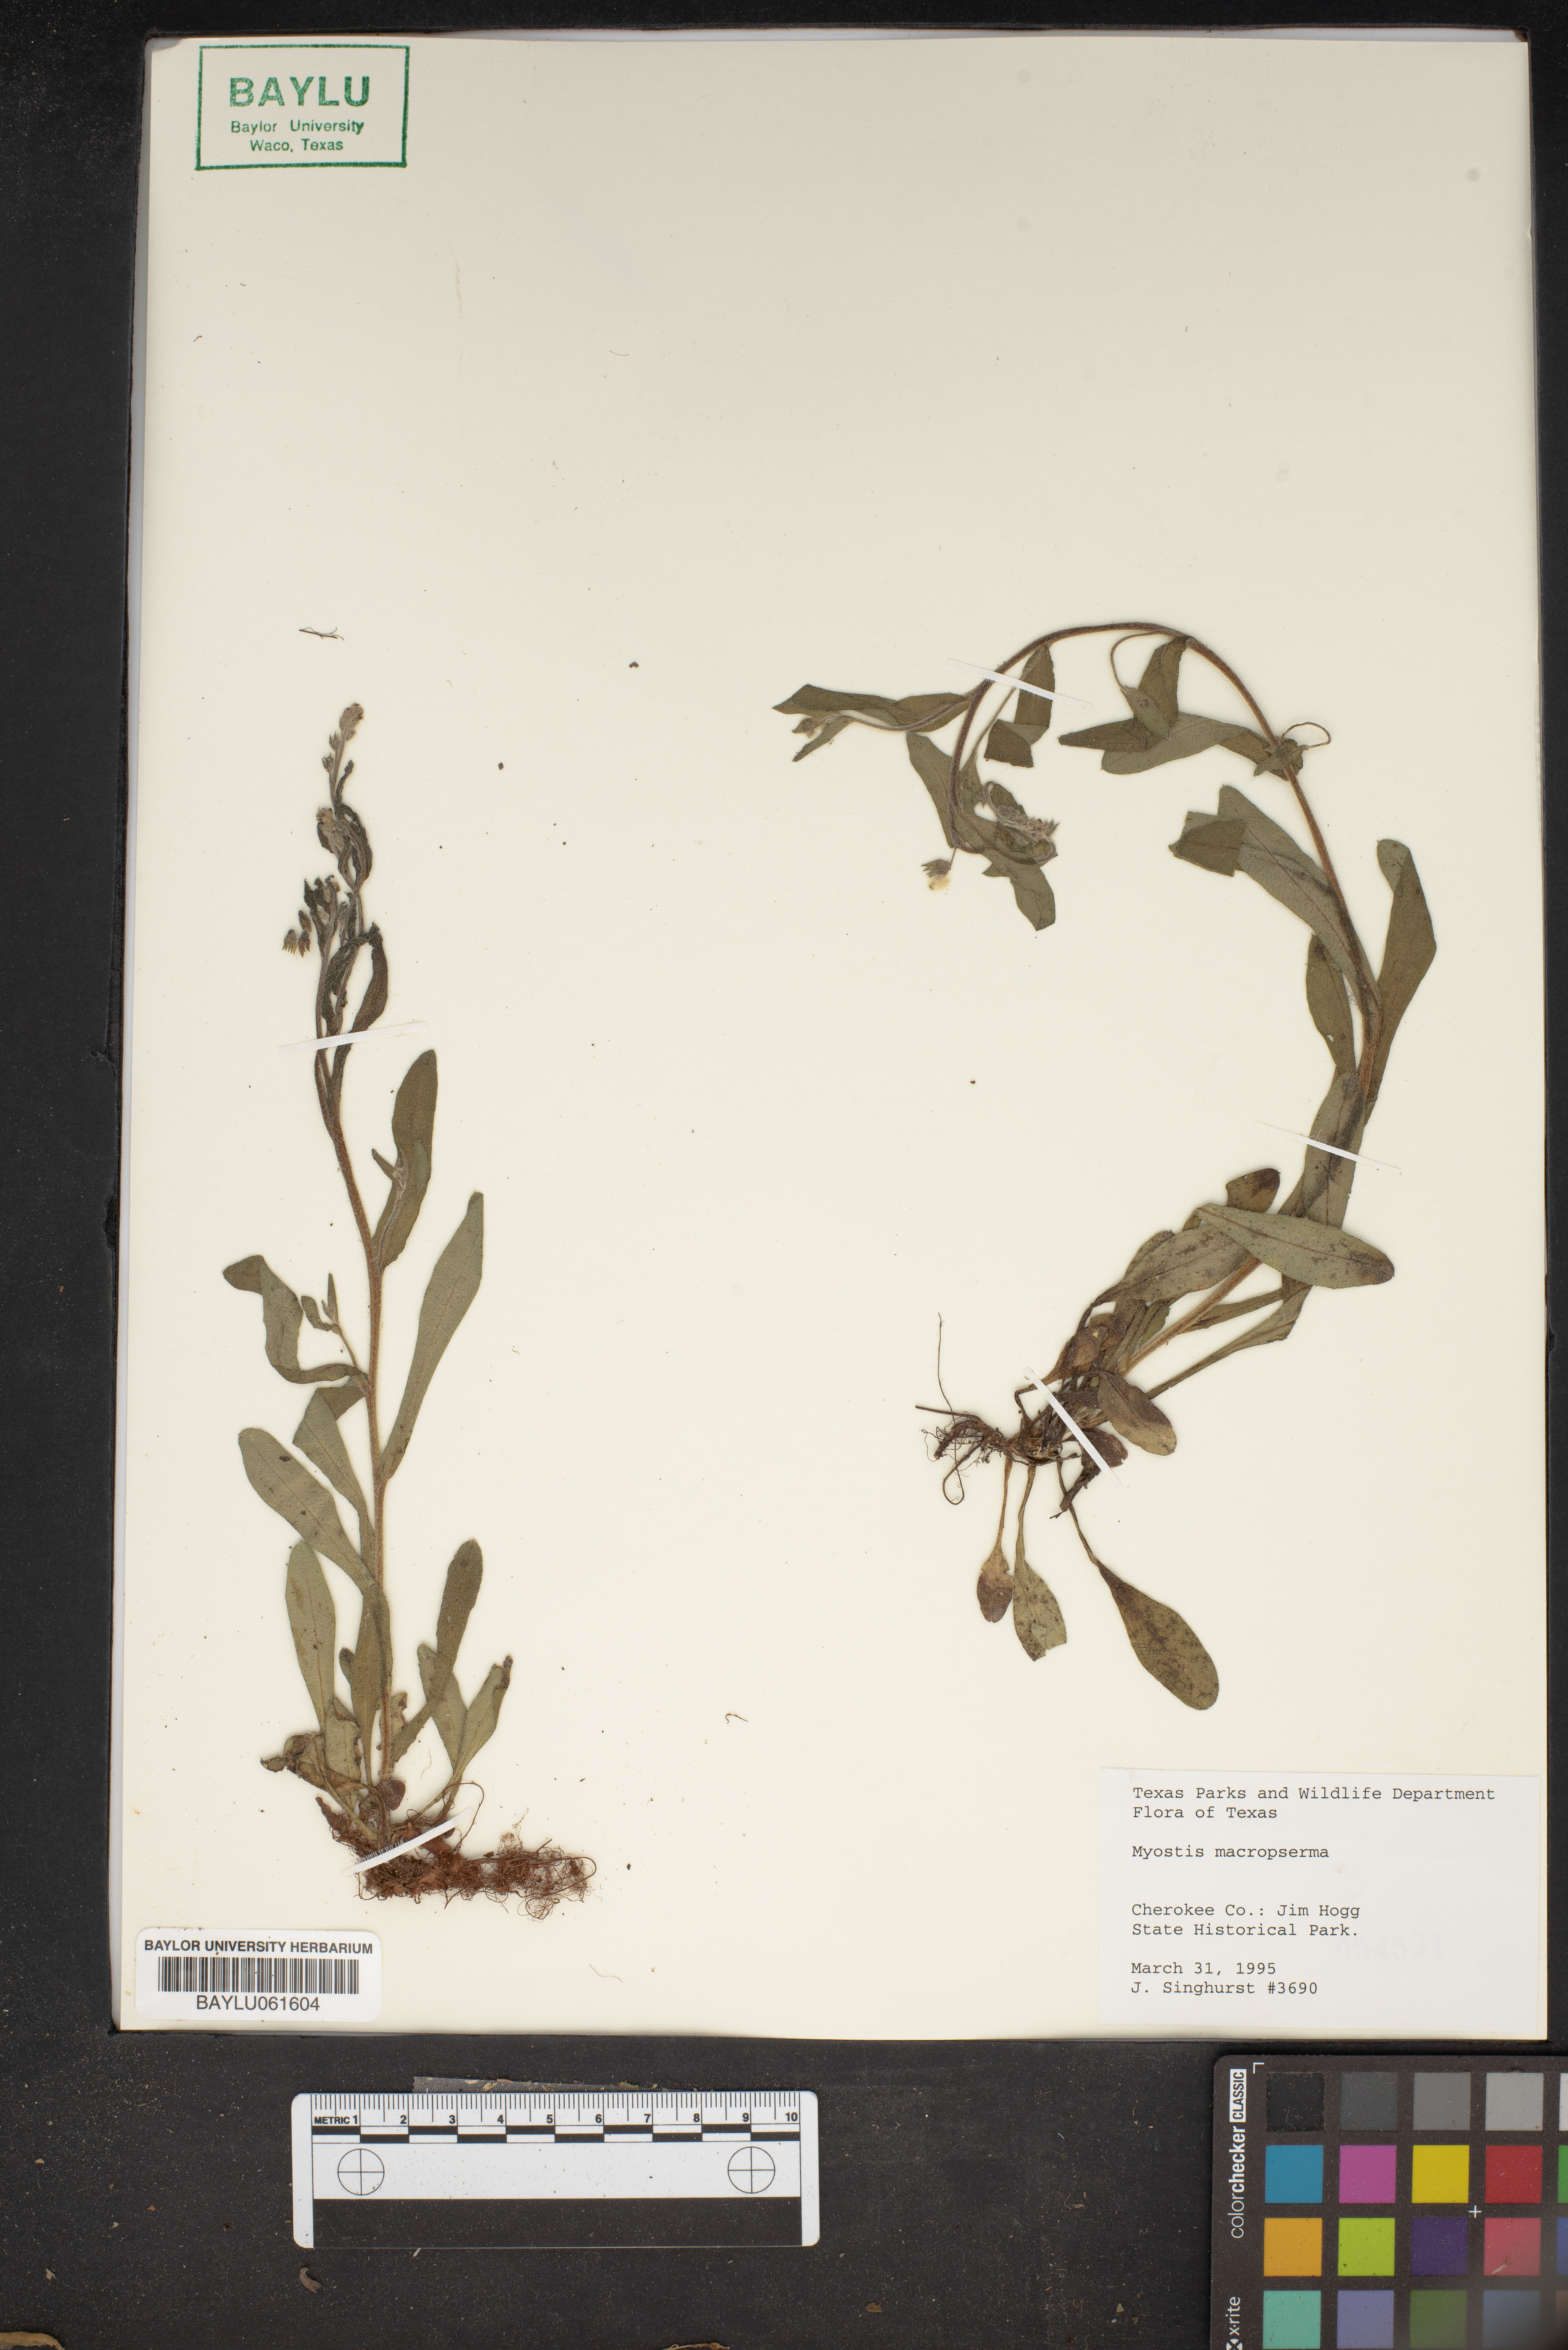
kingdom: Plantae
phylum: Tracheophyta
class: Magnoliopsida
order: Boraginales
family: Boraginaceae
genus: Myosotis
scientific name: Myosotis macrosperma
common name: Large-seed forget-me-not
